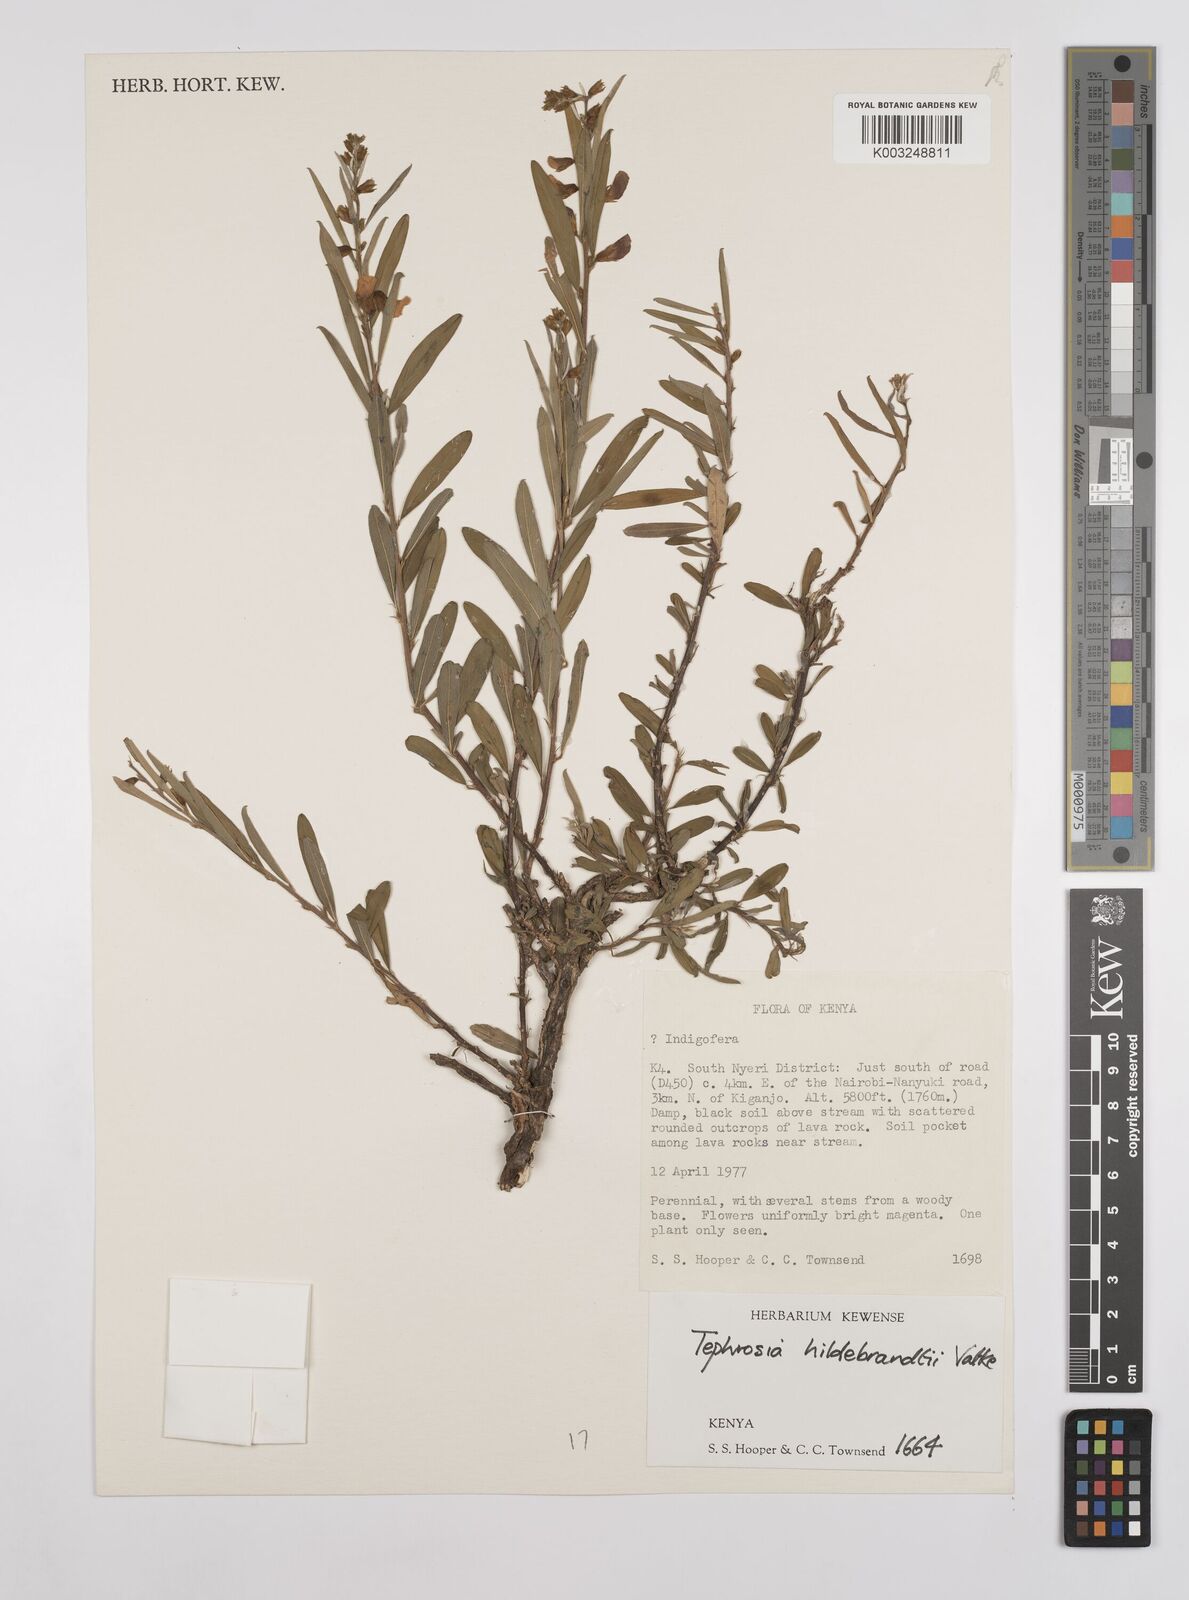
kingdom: Plantae
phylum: Tracheophyta
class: Magnoliopsida
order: Fabales
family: Fabaceae
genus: Tephrosia
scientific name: Tephrosia hildebrandtii
